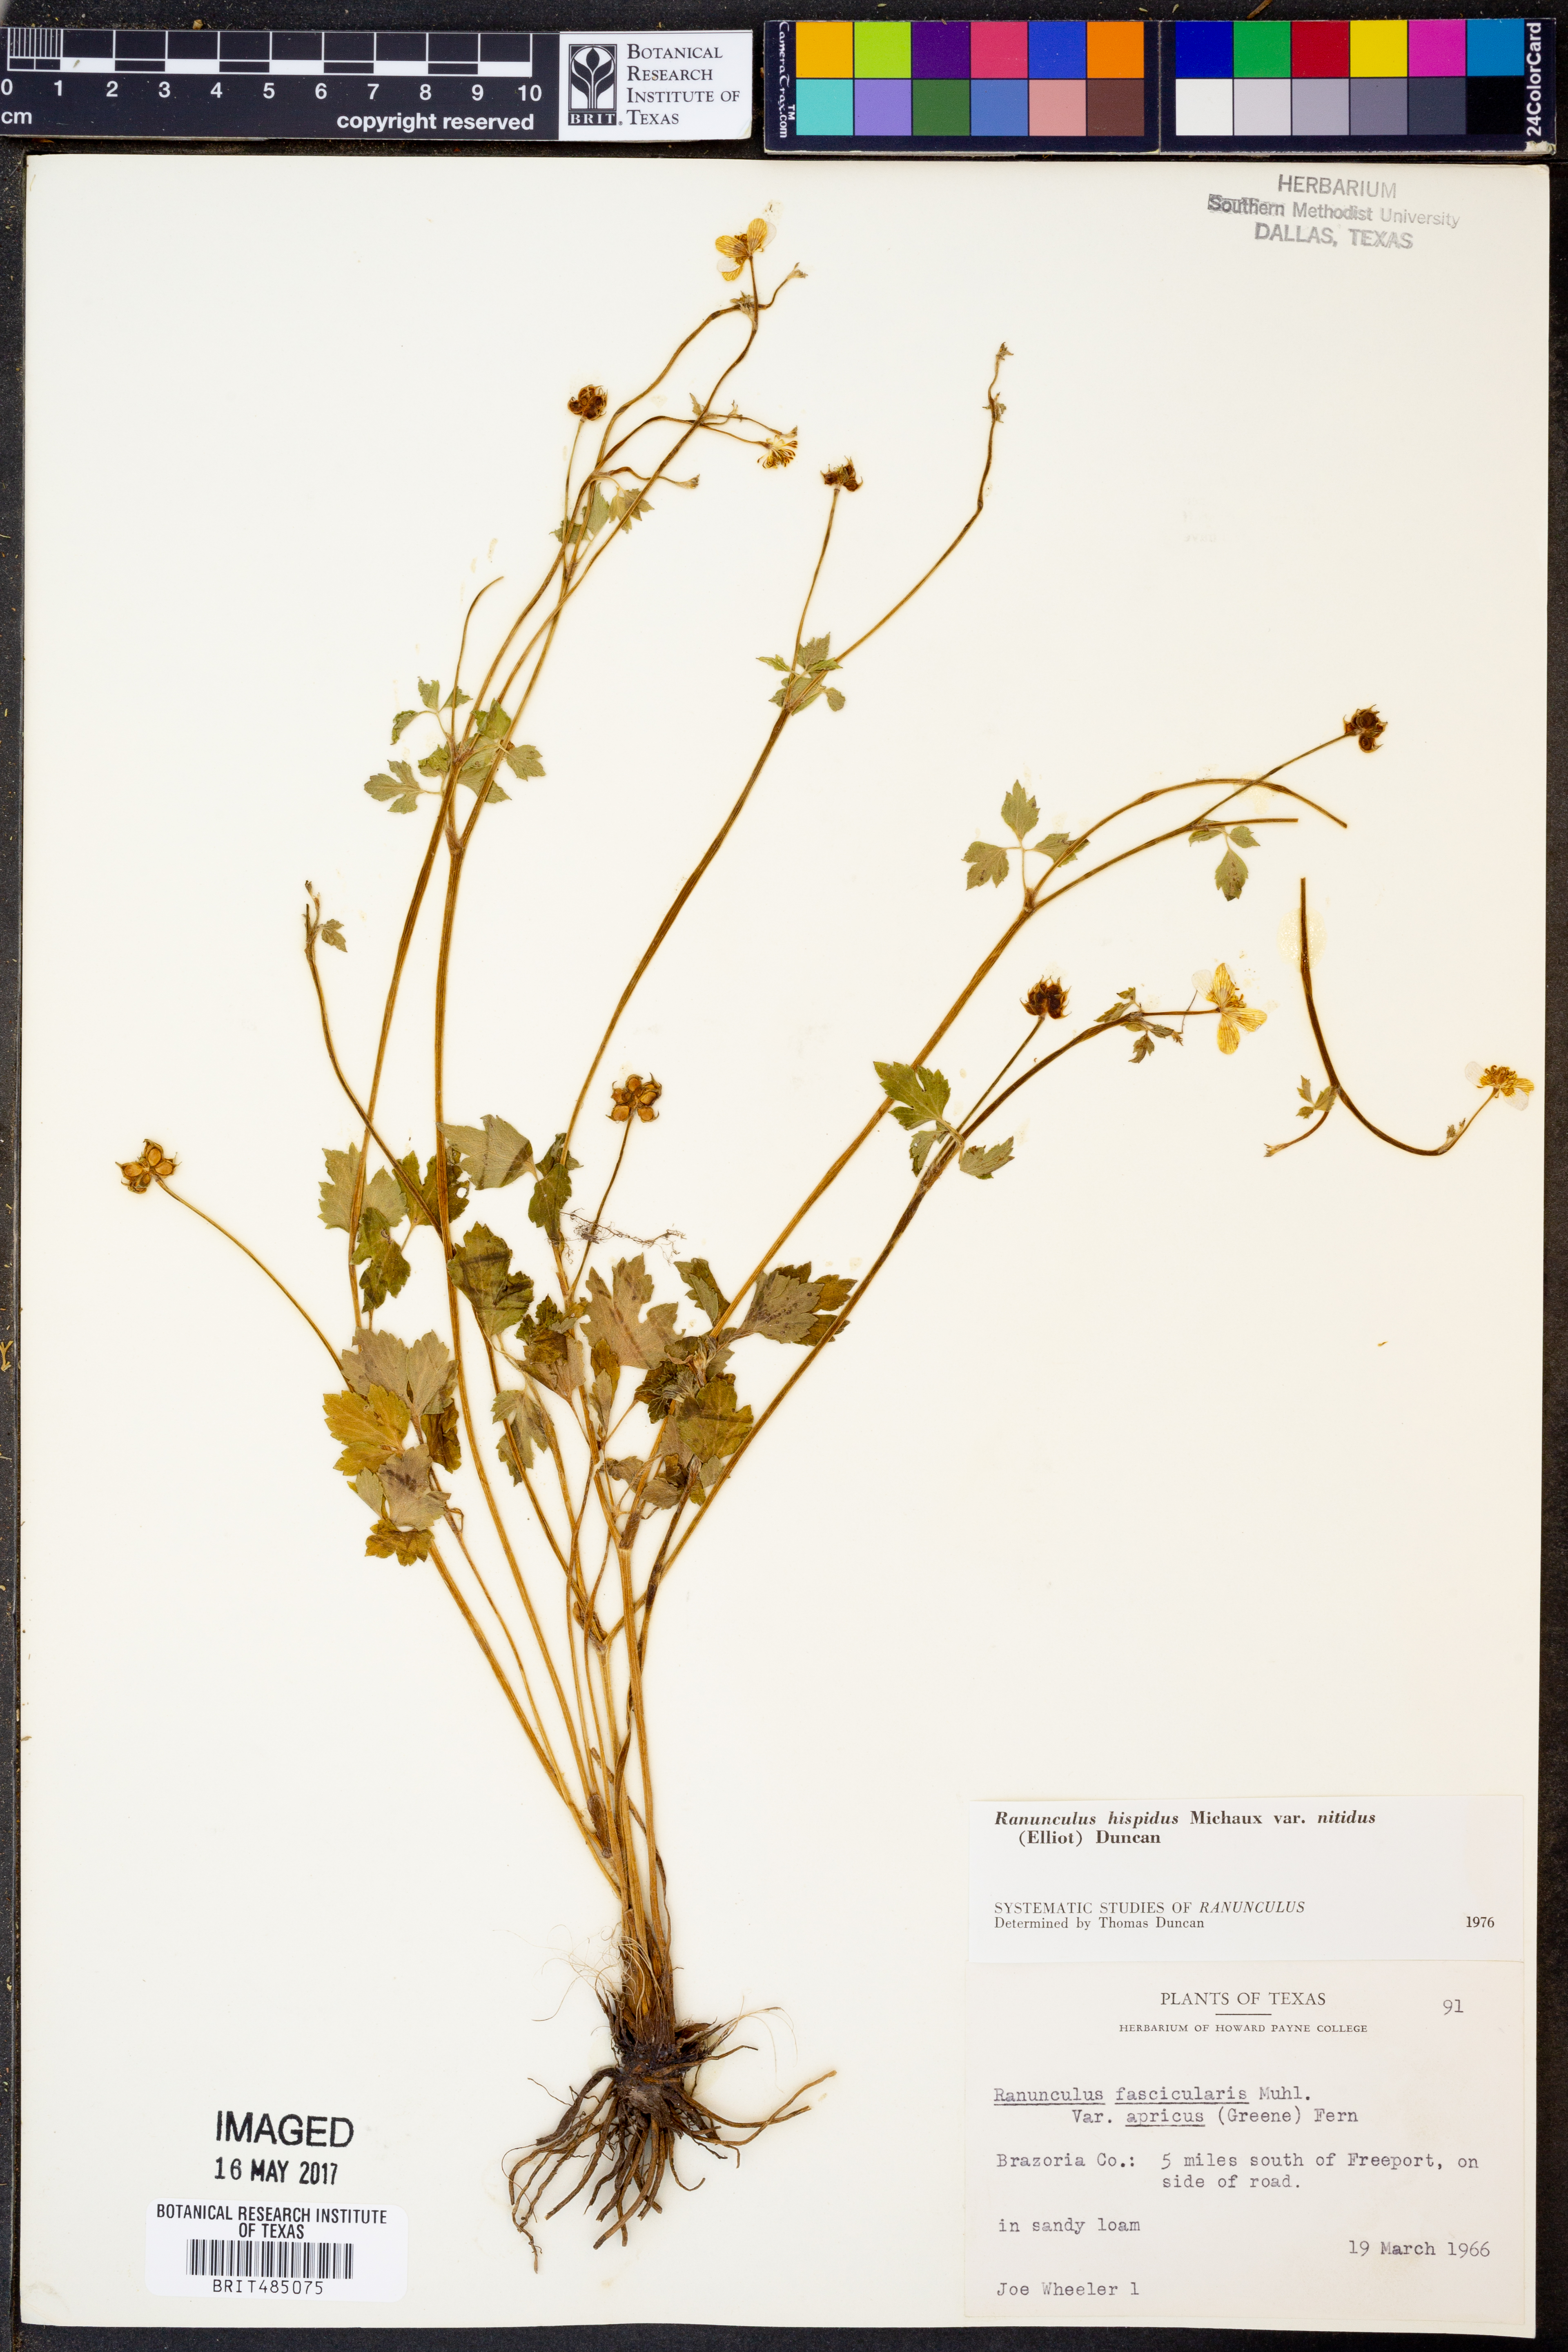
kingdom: Plantae
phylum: Tracheophyta
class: Magnoliopsida
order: Ranunculales
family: Ranunculaceae
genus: Ranunculus
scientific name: Ranunculus hispidus
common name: Bristly buttercup
